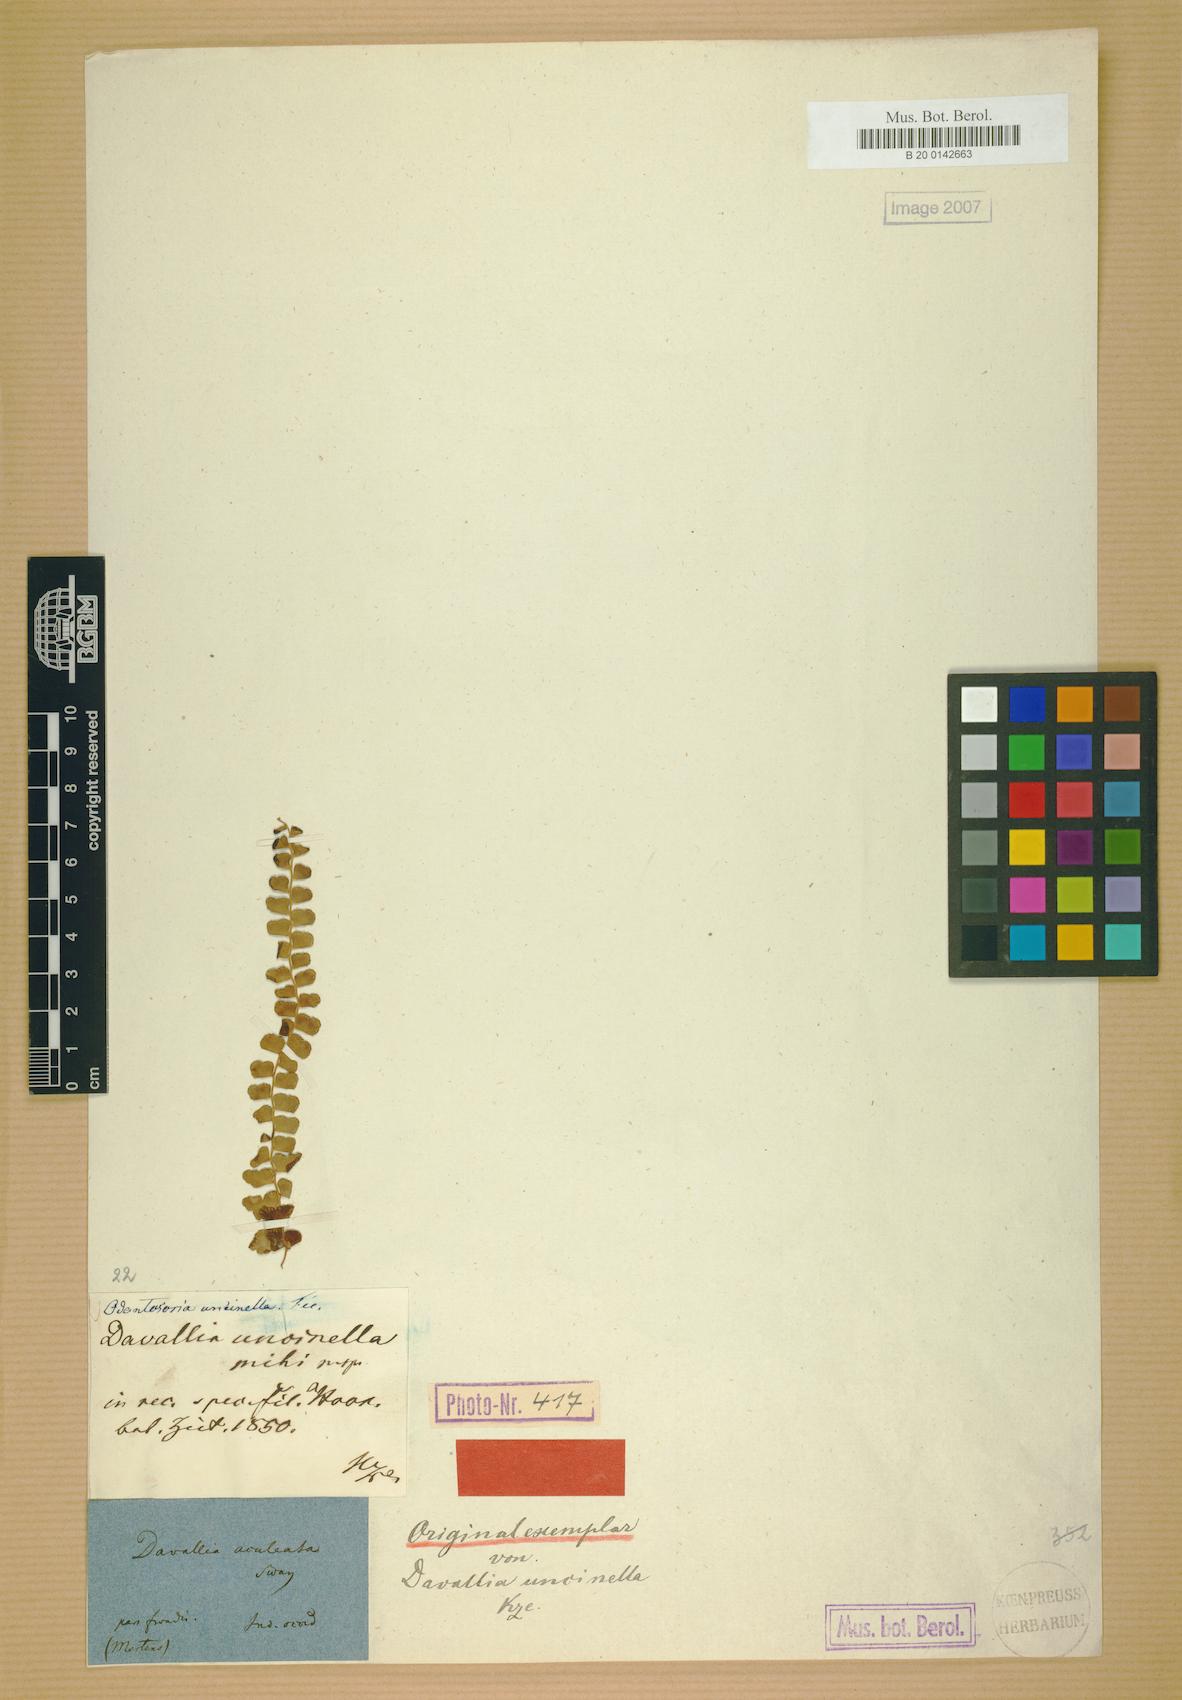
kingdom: Plantae
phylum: Tracheophyta
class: Polypodiopsida
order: Polypodiales
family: Lindsaeaceae
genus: Odontosoria
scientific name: Odontosoria scandens
